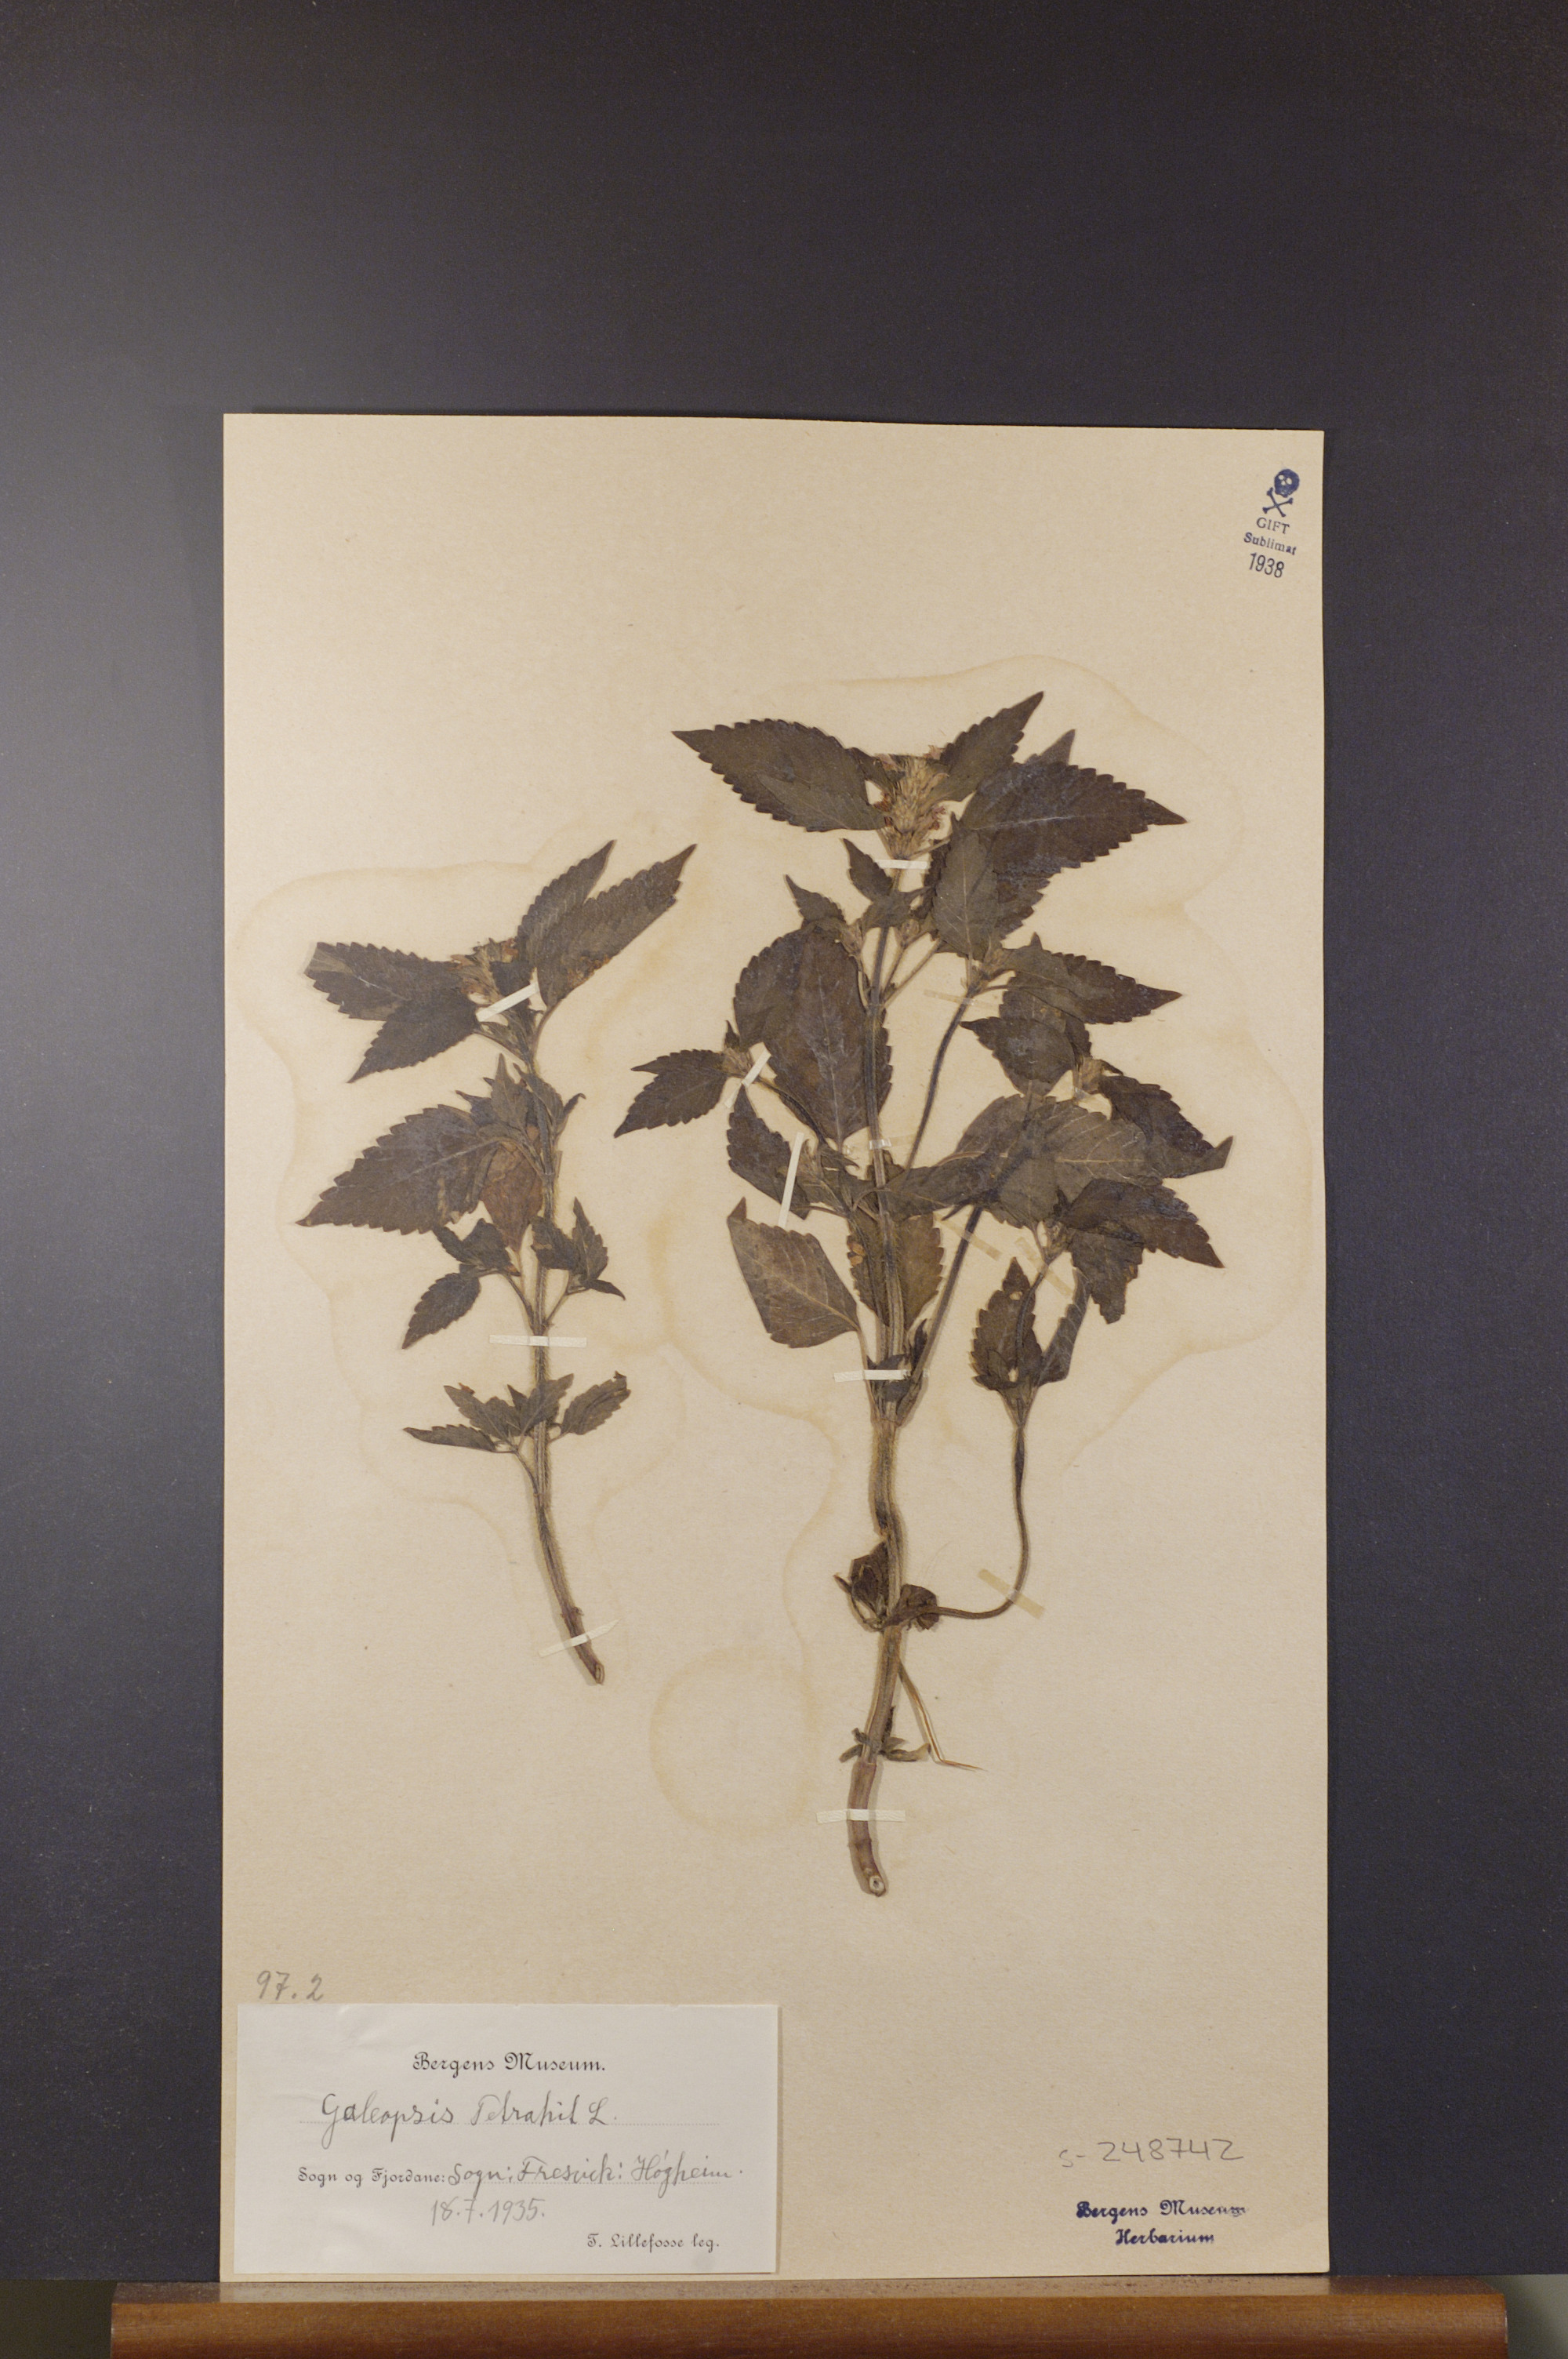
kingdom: Plantae
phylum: Tracheophyta
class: Magnoliopsida
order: Lamiales
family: Lamiaceae
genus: Galeopsis
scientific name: Galeopsis tetrahit
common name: Common hemp-nettle
